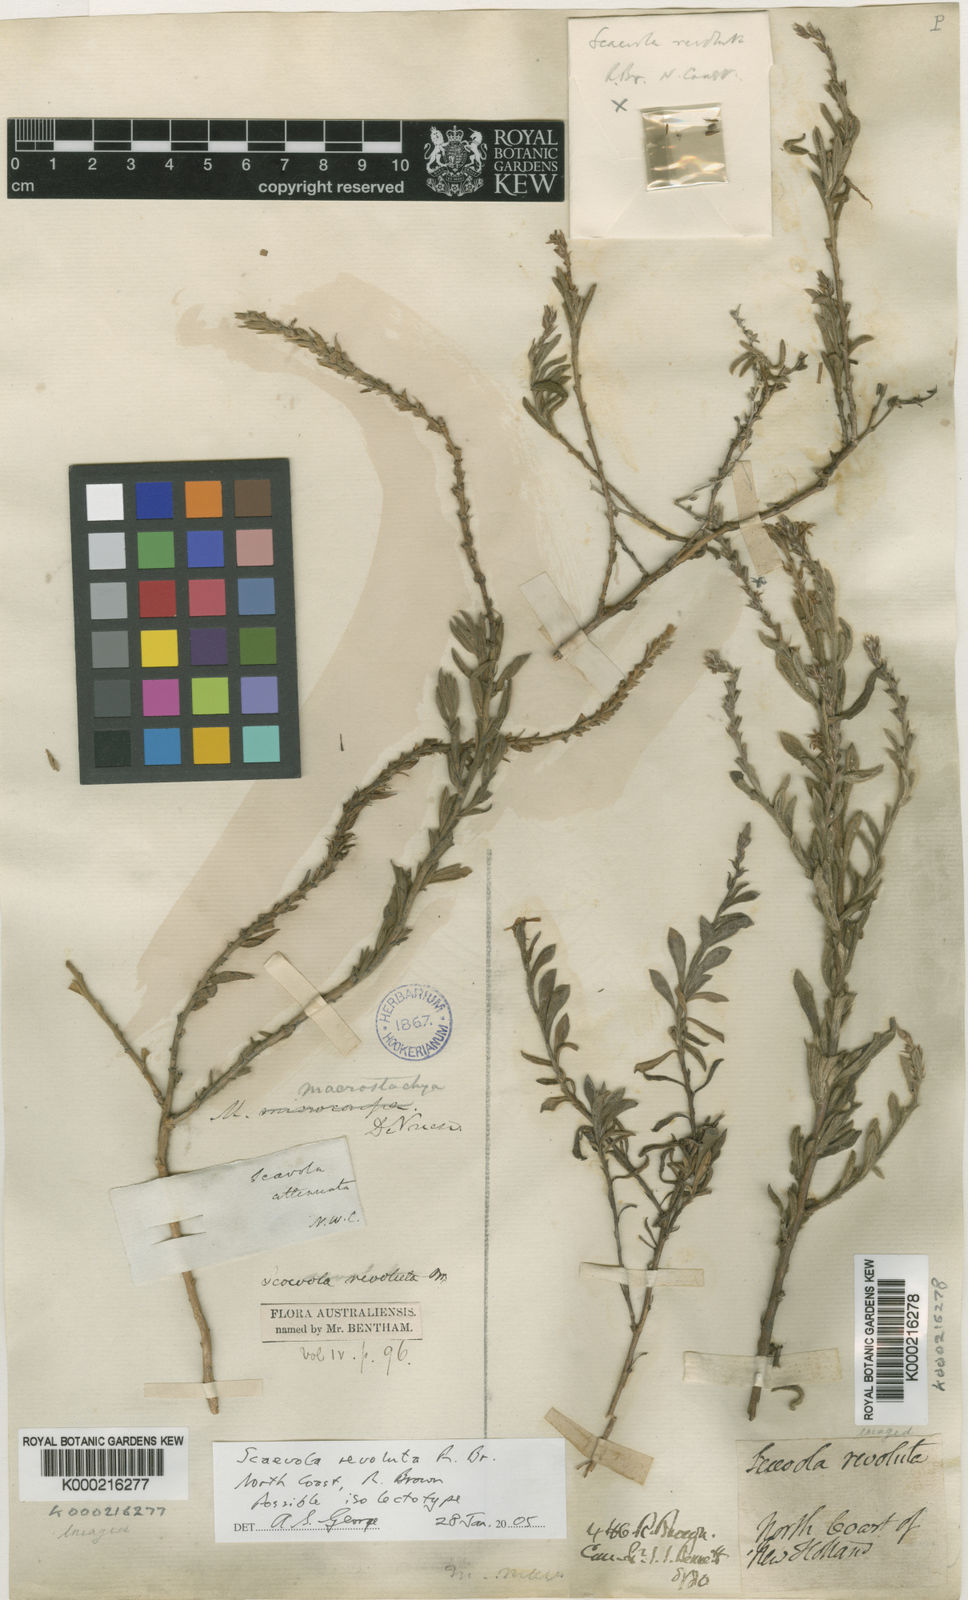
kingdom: Plantae
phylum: Tracheophyta
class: Magnoliopsida
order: Asterales
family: Goodeniaceae
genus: Scaevola
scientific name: Scaevola revoluta
